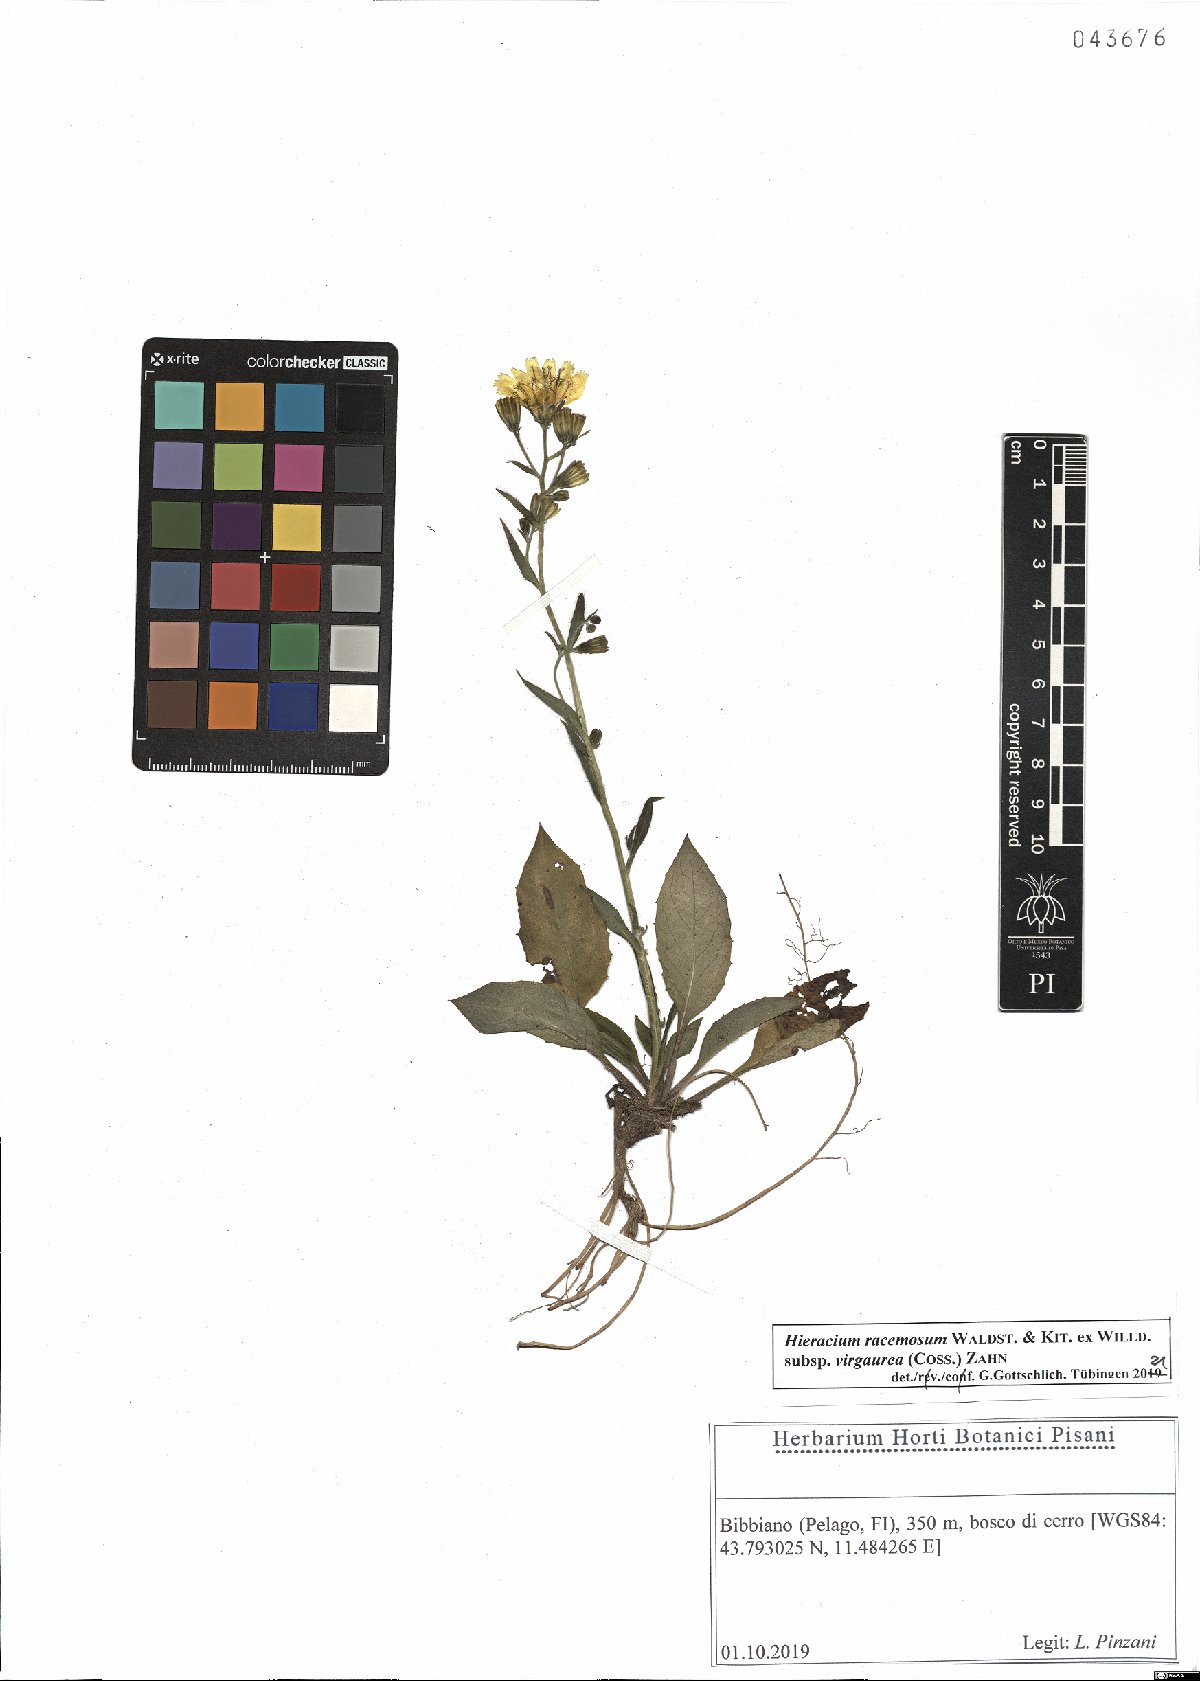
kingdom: Plantae
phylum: Tracheophyta
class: Magnoliopsida
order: Asterales
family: Asteraceae
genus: Hieracium
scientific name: Hieracium racemosum
